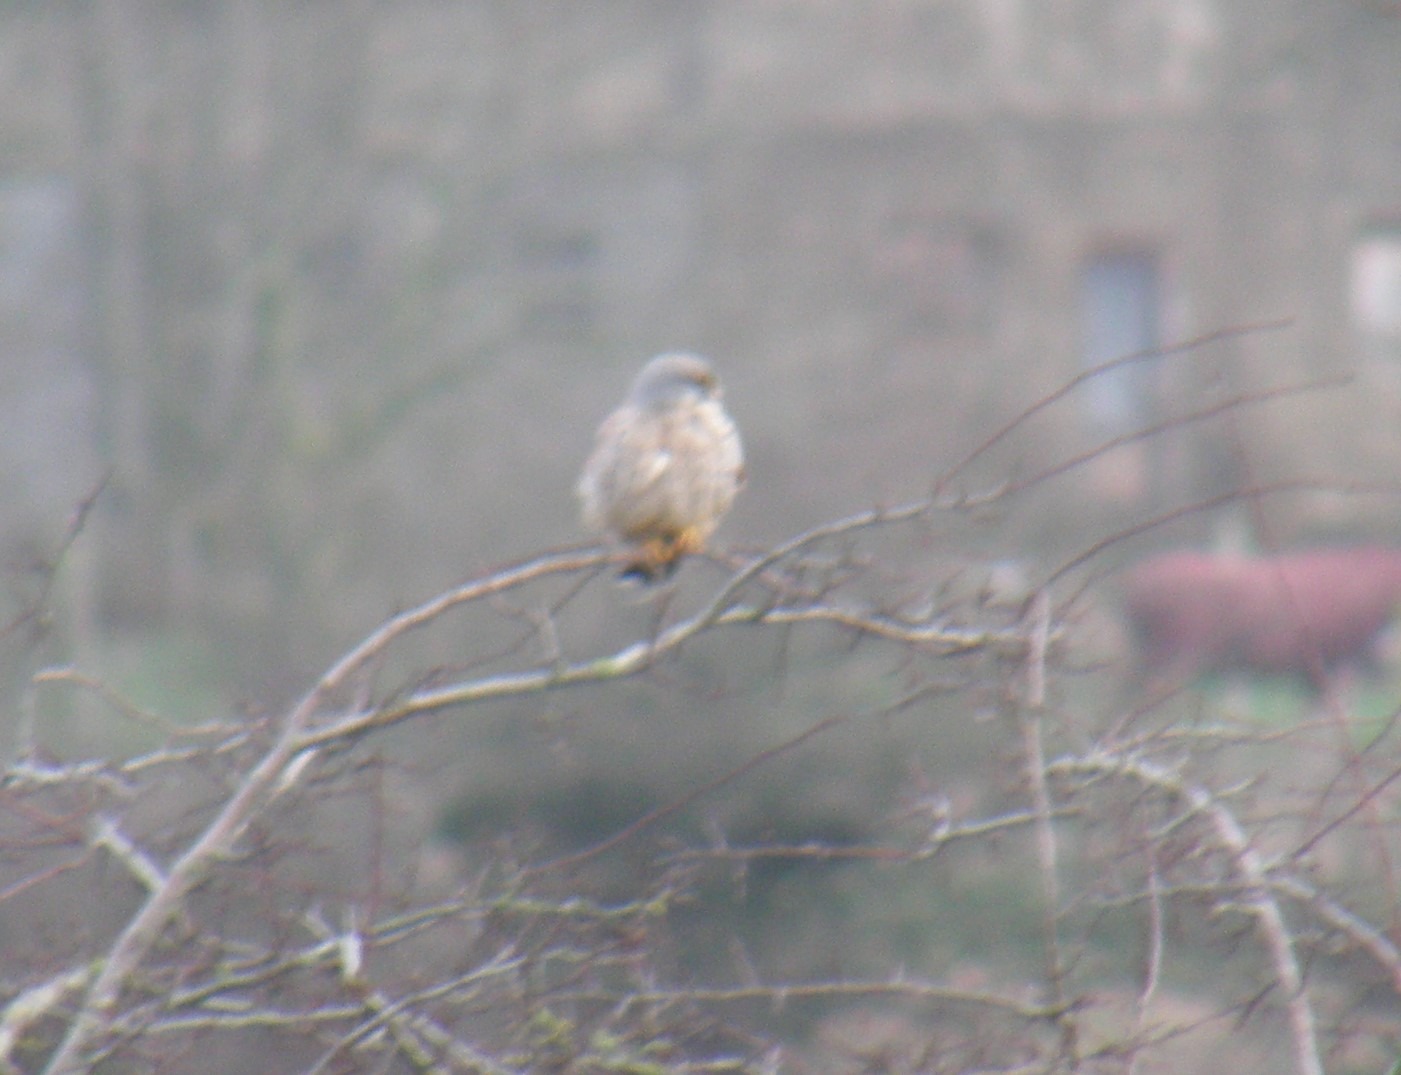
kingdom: Animalia
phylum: Chordata
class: Aves
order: Falconiformes
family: Falconidae
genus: Falco
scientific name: Falco tinnunculus
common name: Tårnfalk
